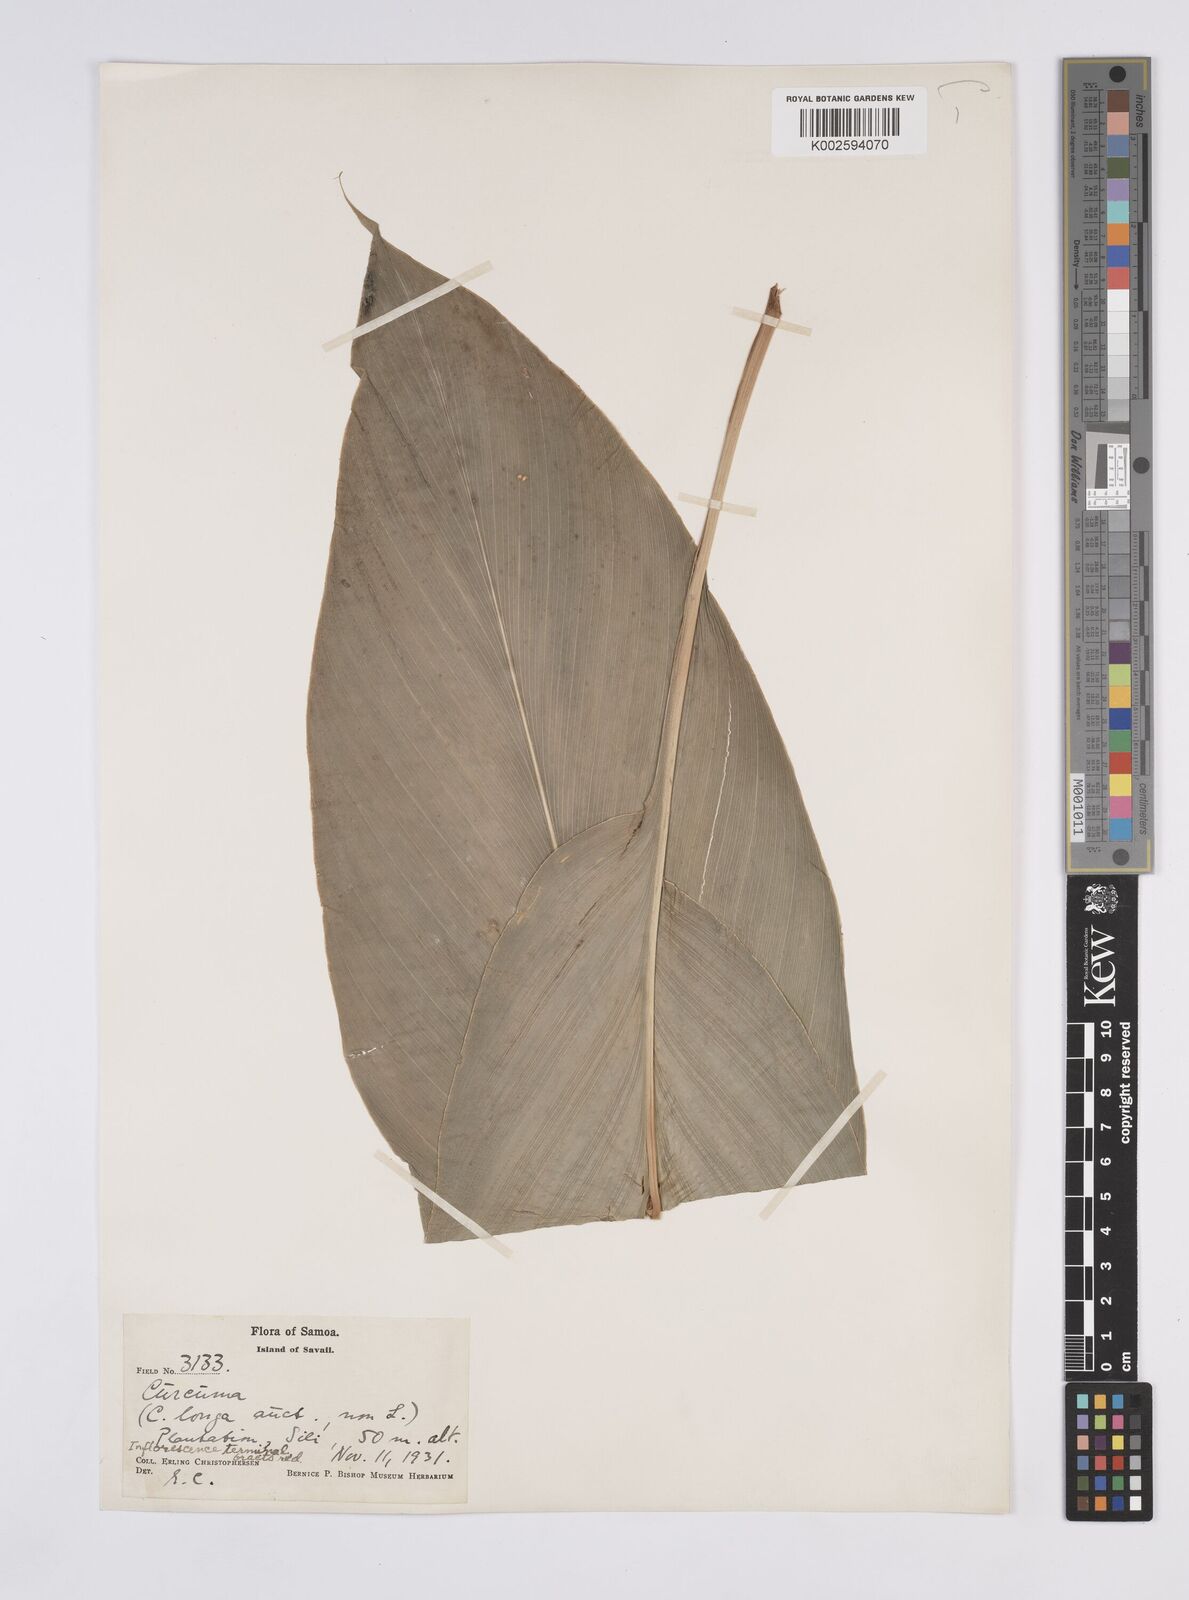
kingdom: Plantae
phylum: Tracheophyta
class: Liliopsida
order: Zingiberales
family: Zingiberaceae
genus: Curcuma
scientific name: Curcuma longa
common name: Turmeric
